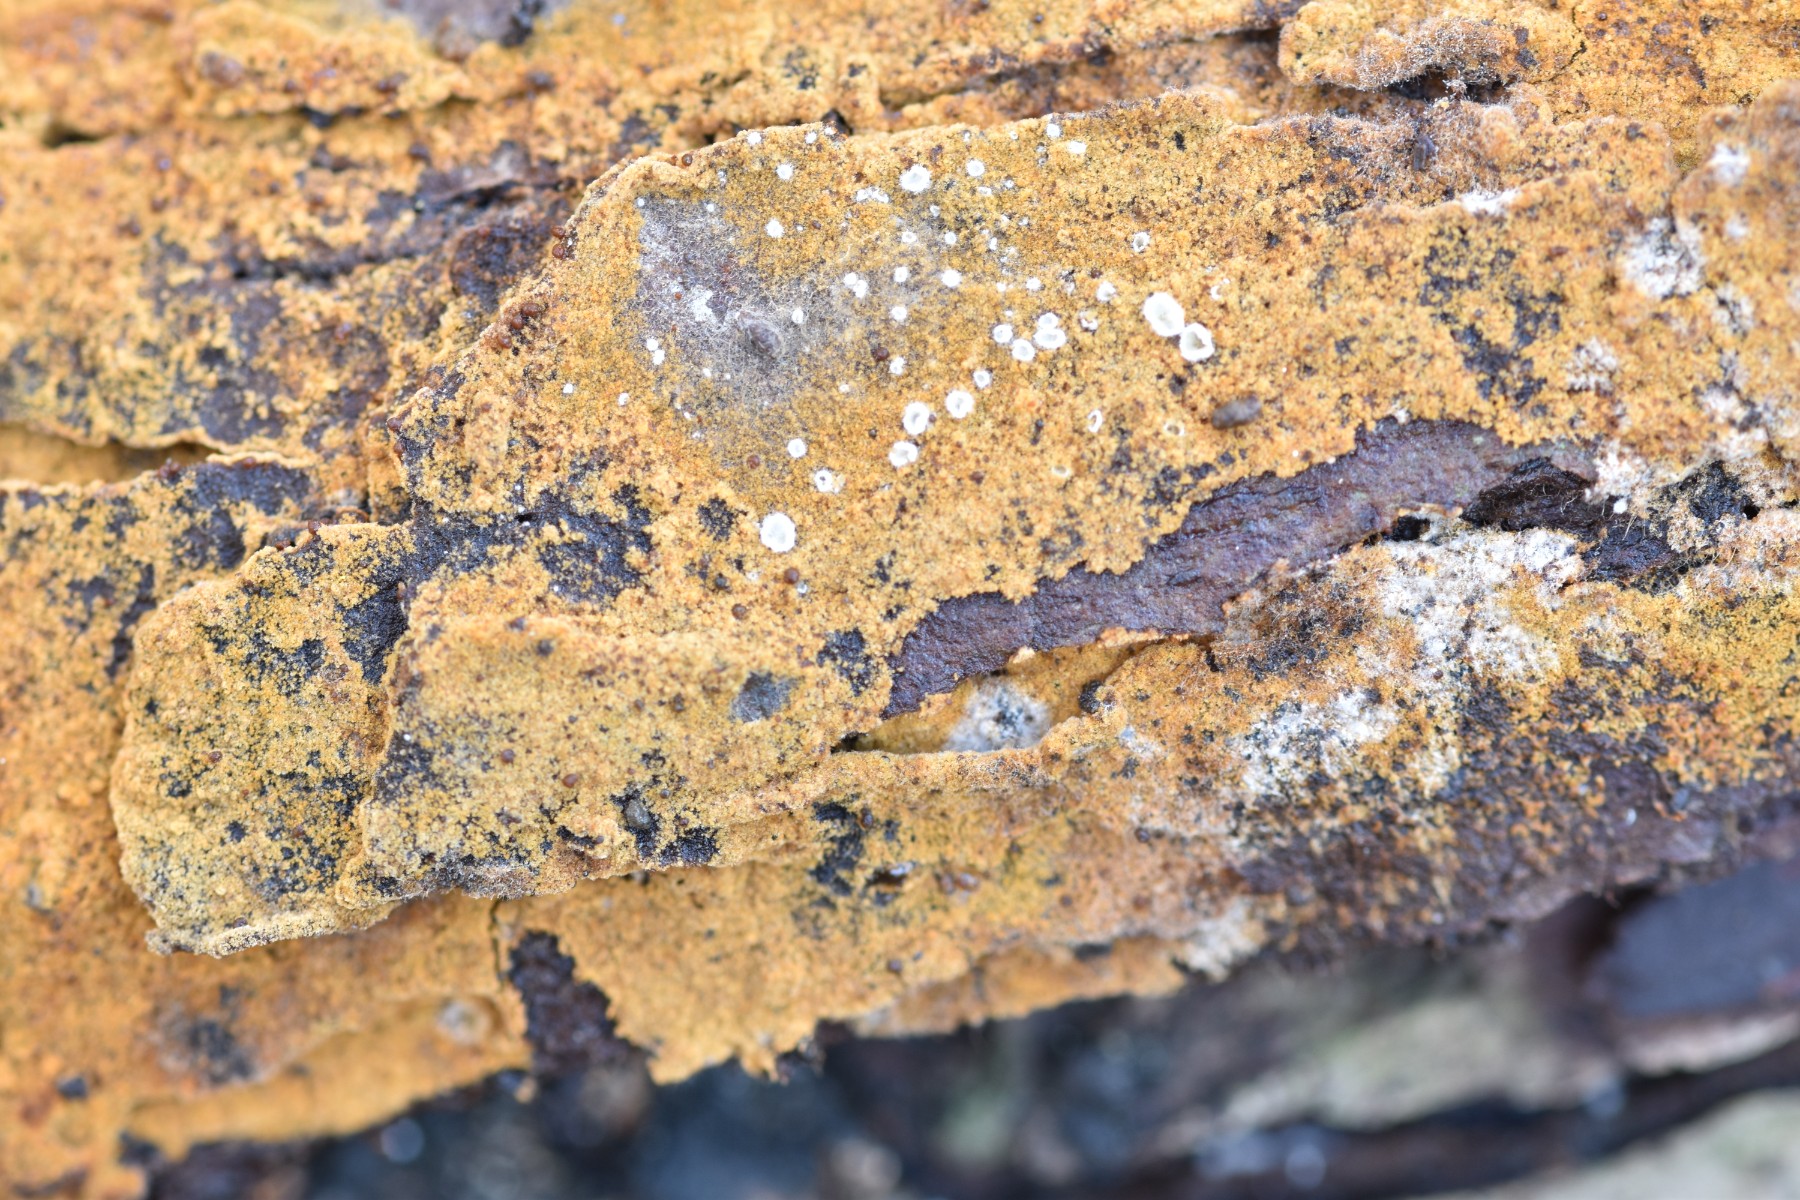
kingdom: Fungi
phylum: Basidiomycota
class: Agaricomycetes
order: Thelephorales
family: Thelephoraceae
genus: Tomentella
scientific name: Tomentella bryophila
